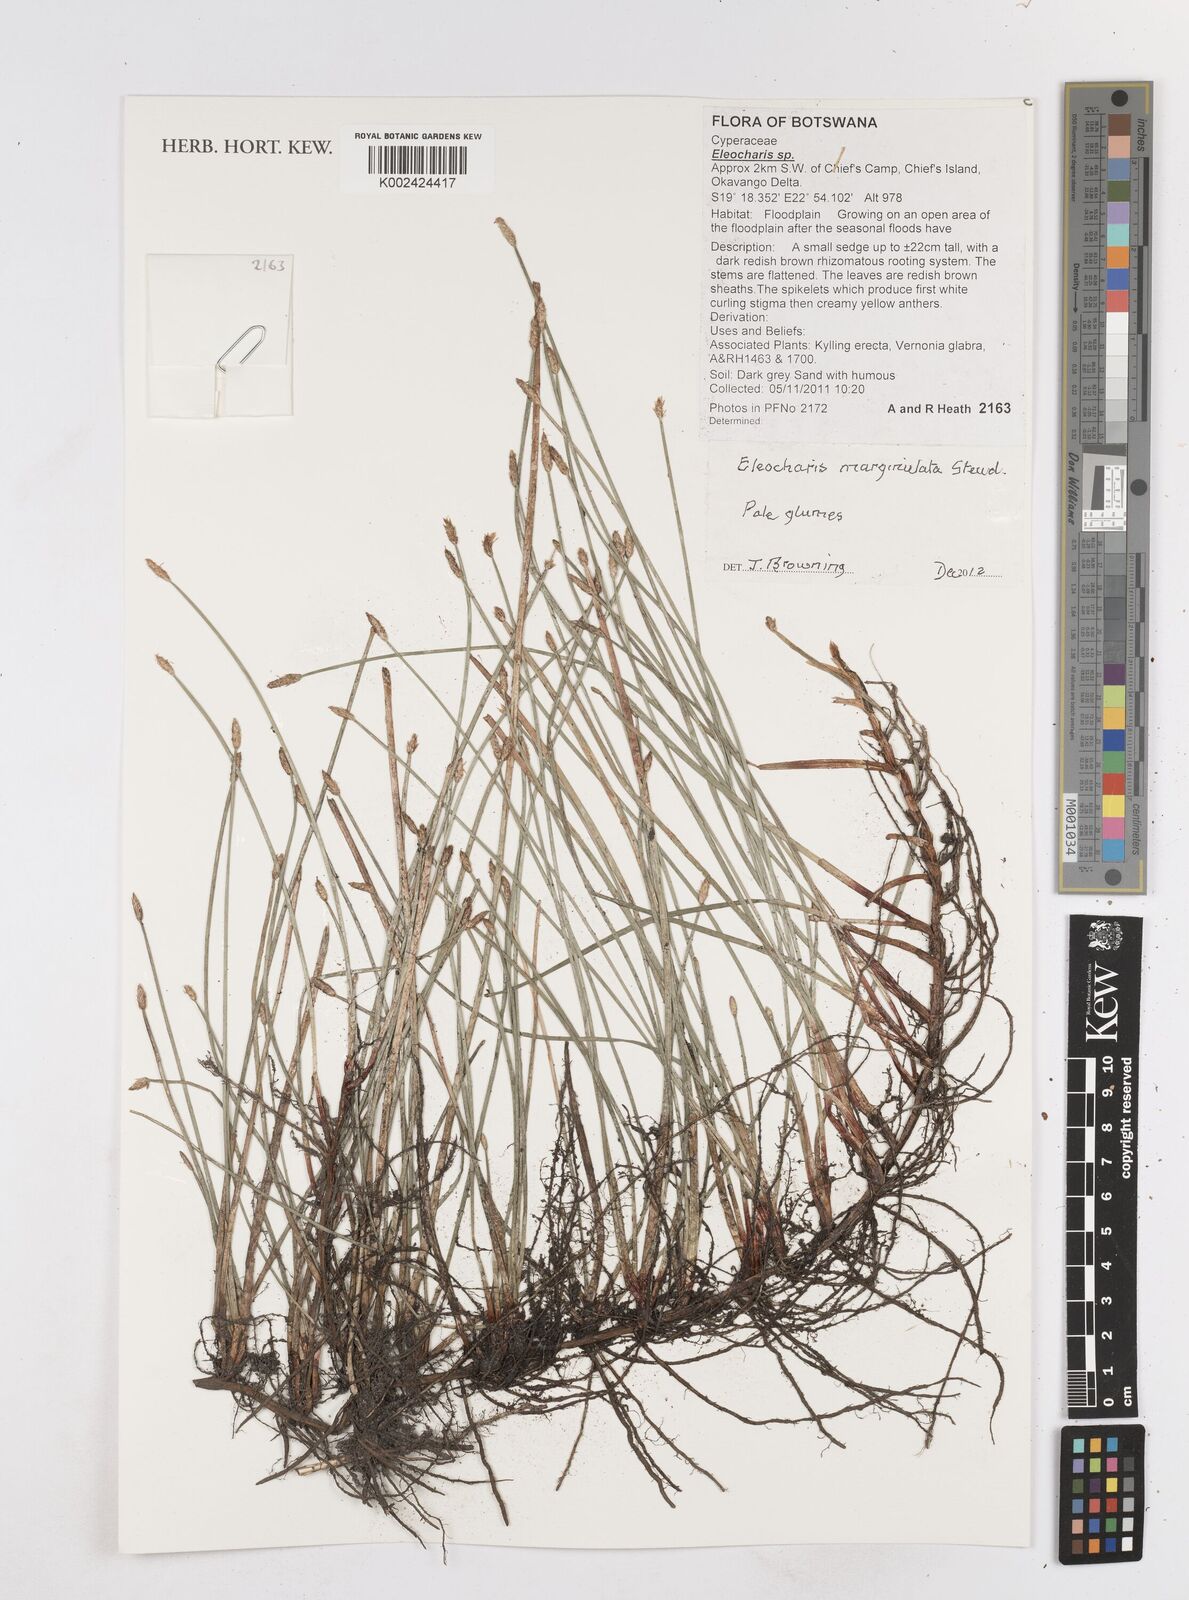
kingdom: Plantae
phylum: Tracheophyta
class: Liliopsida
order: Poales
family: Cyperaceae
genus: Eleocharis
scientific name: Eleocharis marginulata
